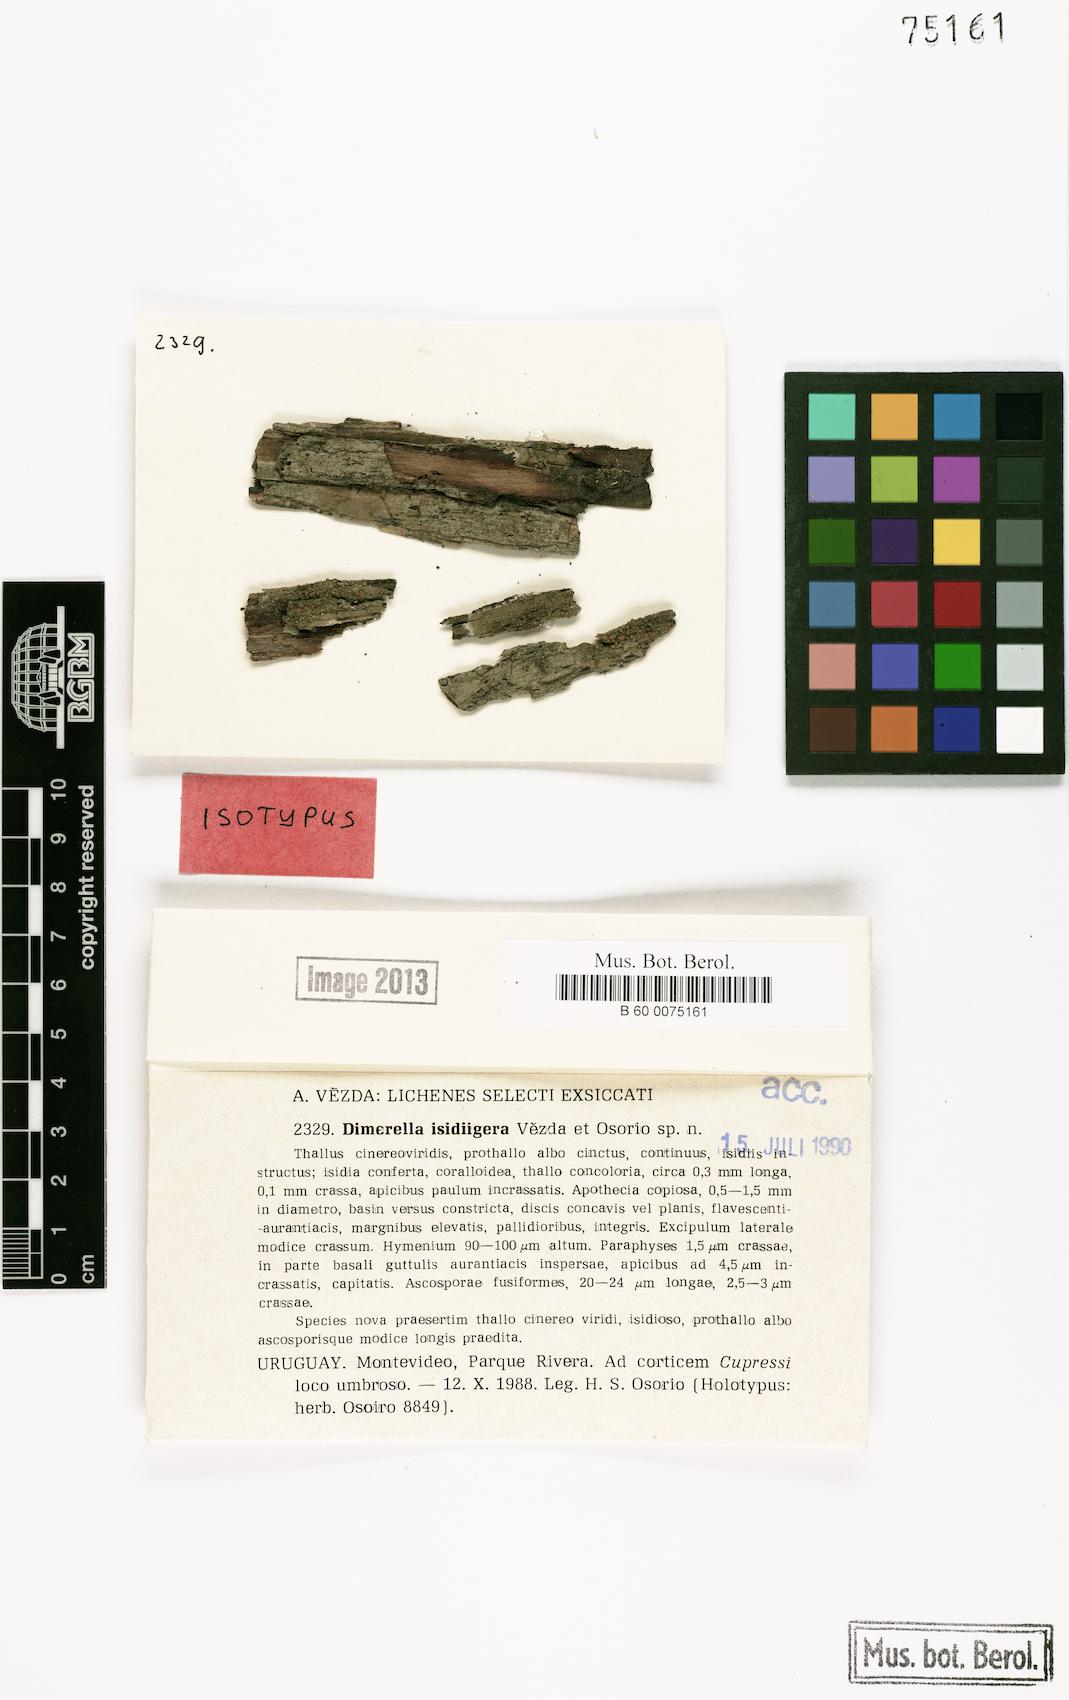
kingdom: Fungi
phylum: Ascomycota
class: Lecanoromycetes
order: Ostropales
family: Coenogoniaceae
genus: Coenogonium
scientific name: Coenogonium isidiigerum
